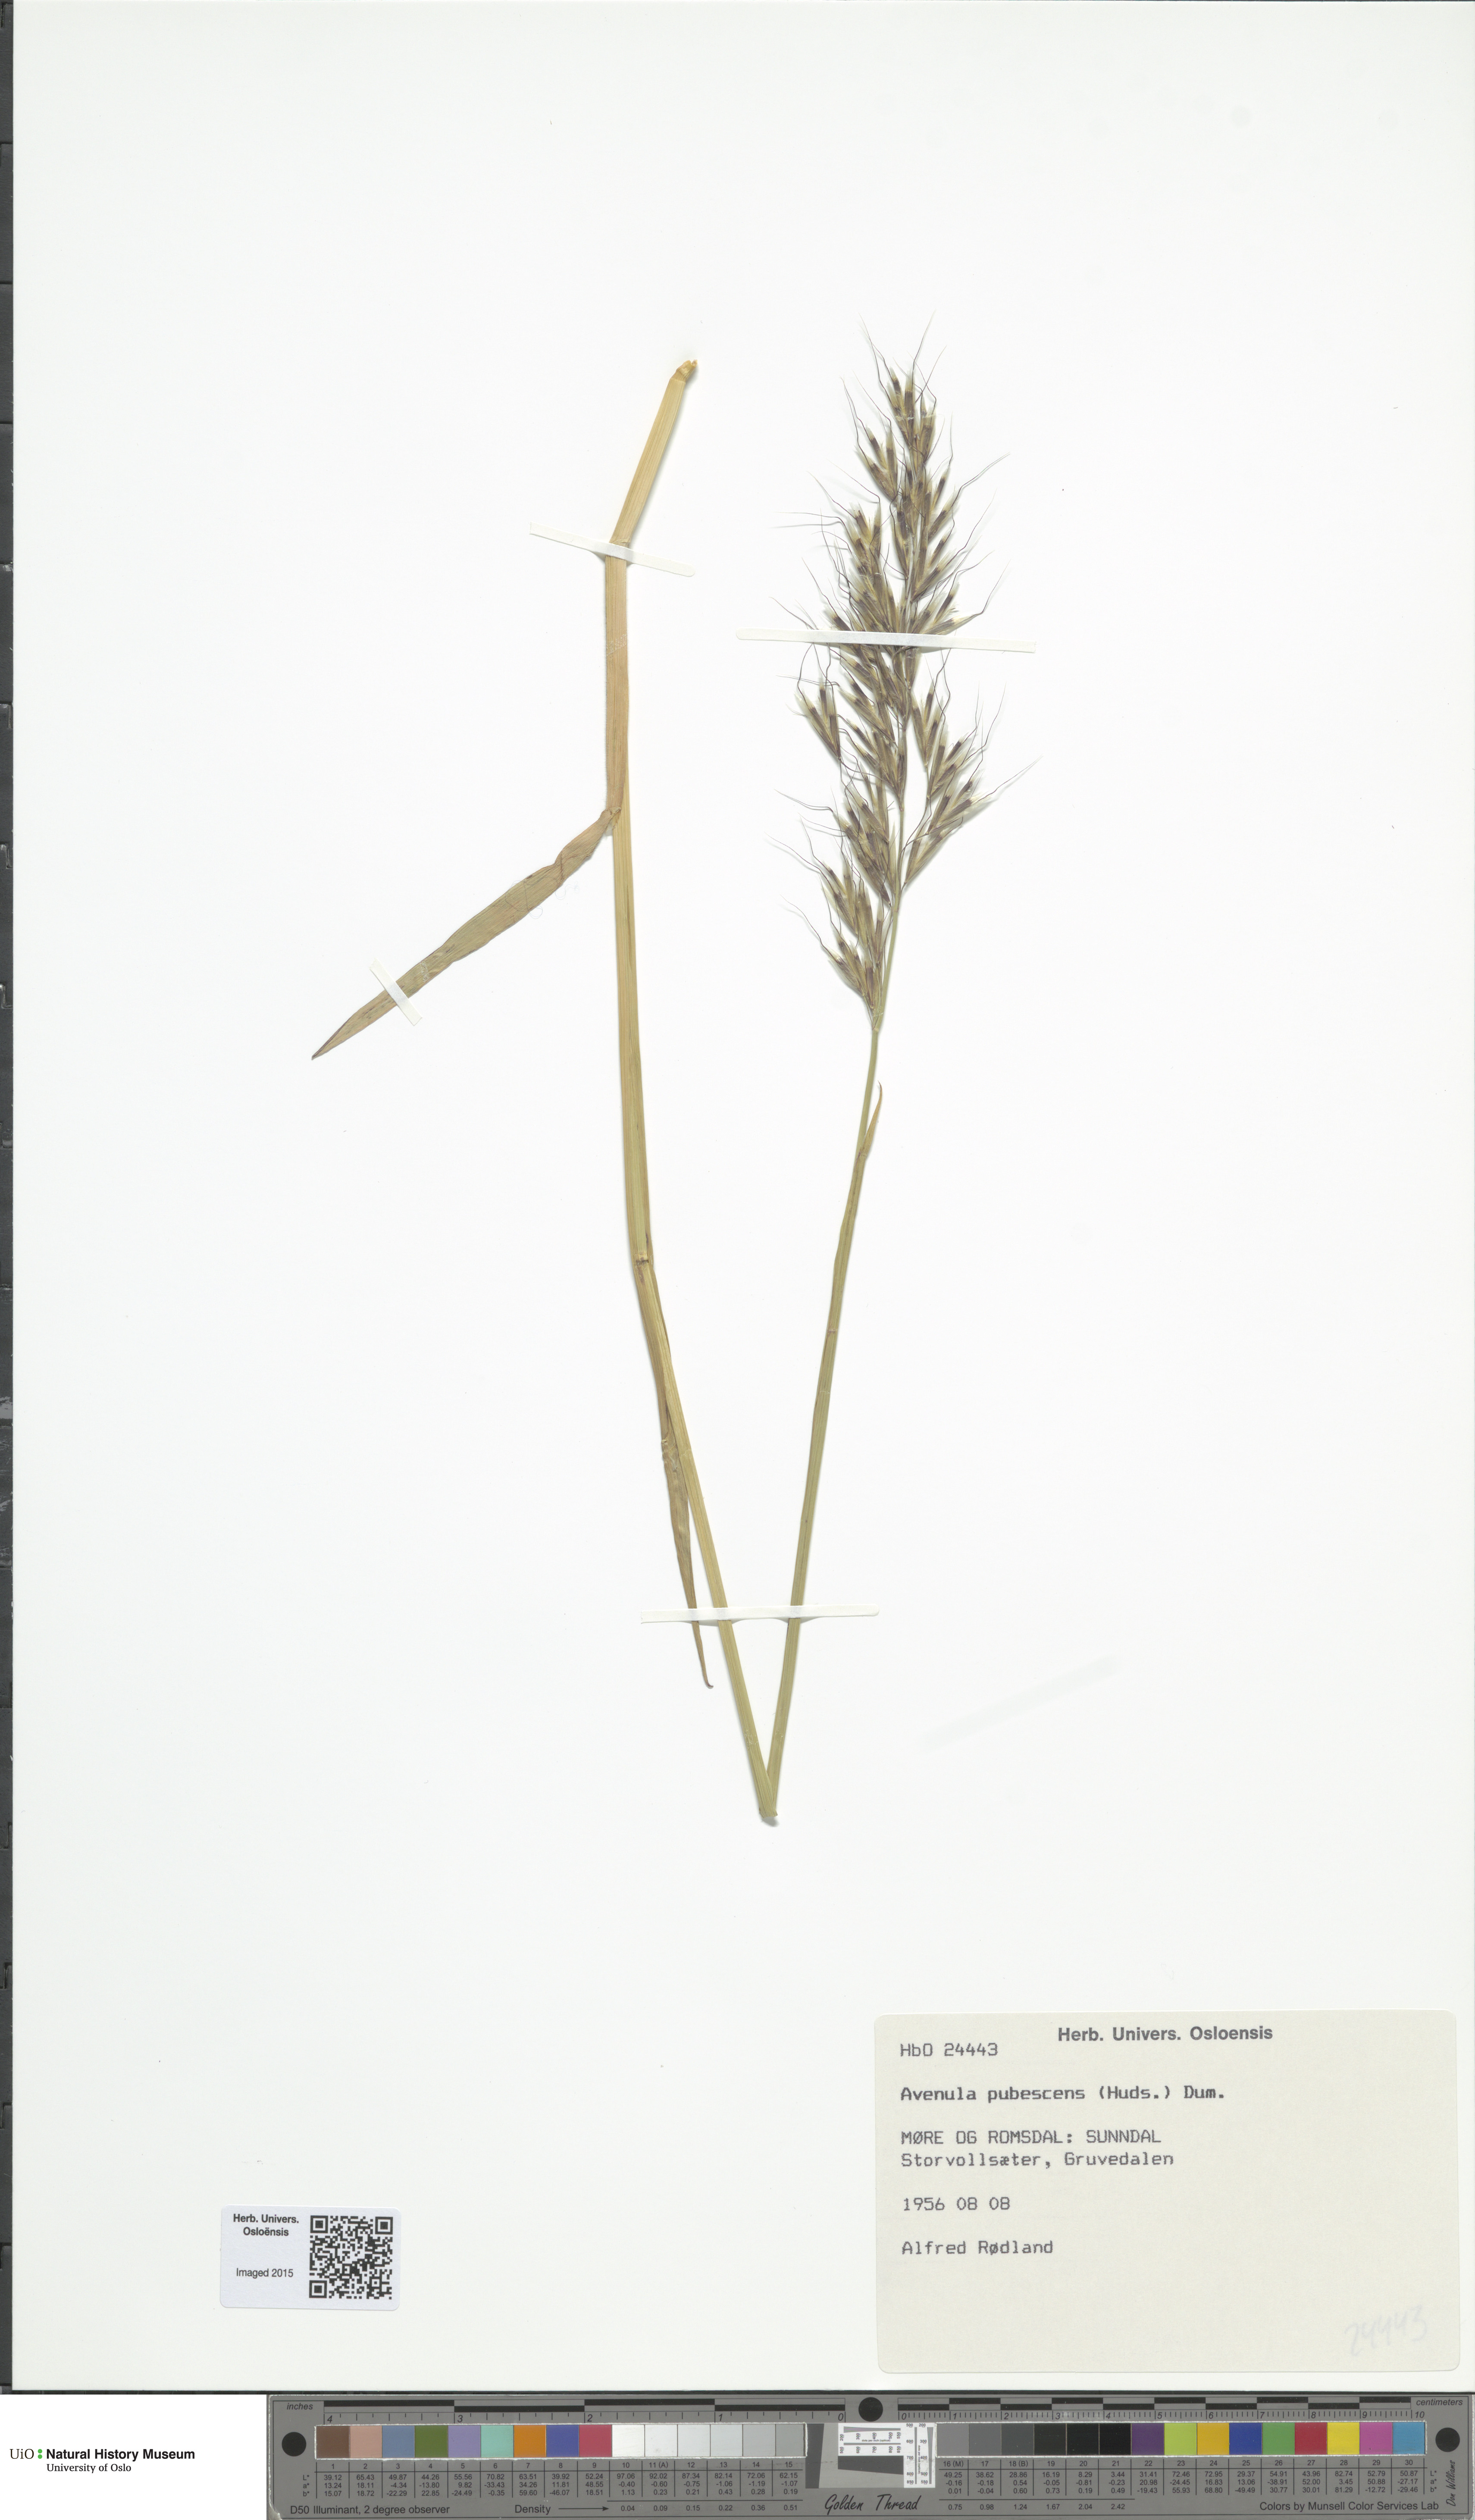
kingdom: Plantae
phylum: Tracheophyta
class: Liliopsida
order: Poales
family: Poaceae
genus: Avenula
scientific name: Avenula pubescens
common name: Downy alpine oatgrass
